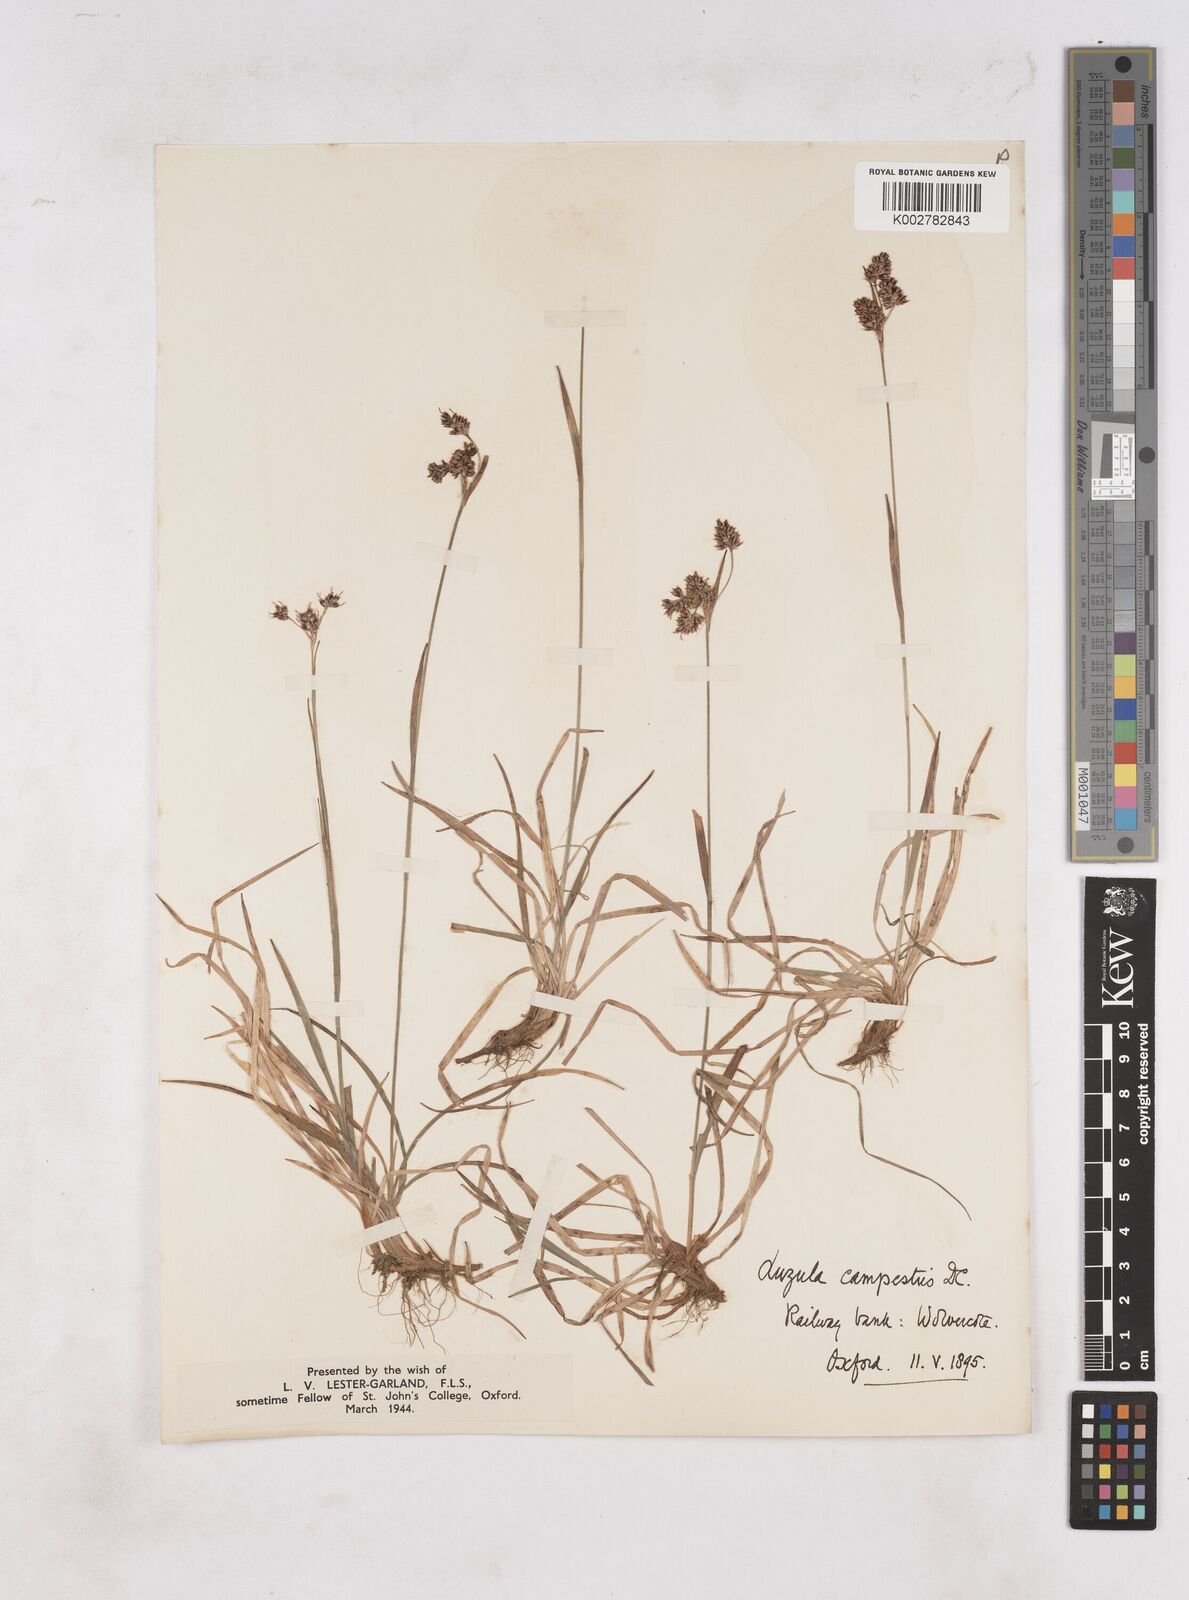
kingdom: Plantae
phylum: Tracheophyta
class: Liliopsida
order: Poales
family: Juncaceae
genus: Luzula
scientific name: Luzula campestris
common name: Field wood-rush
